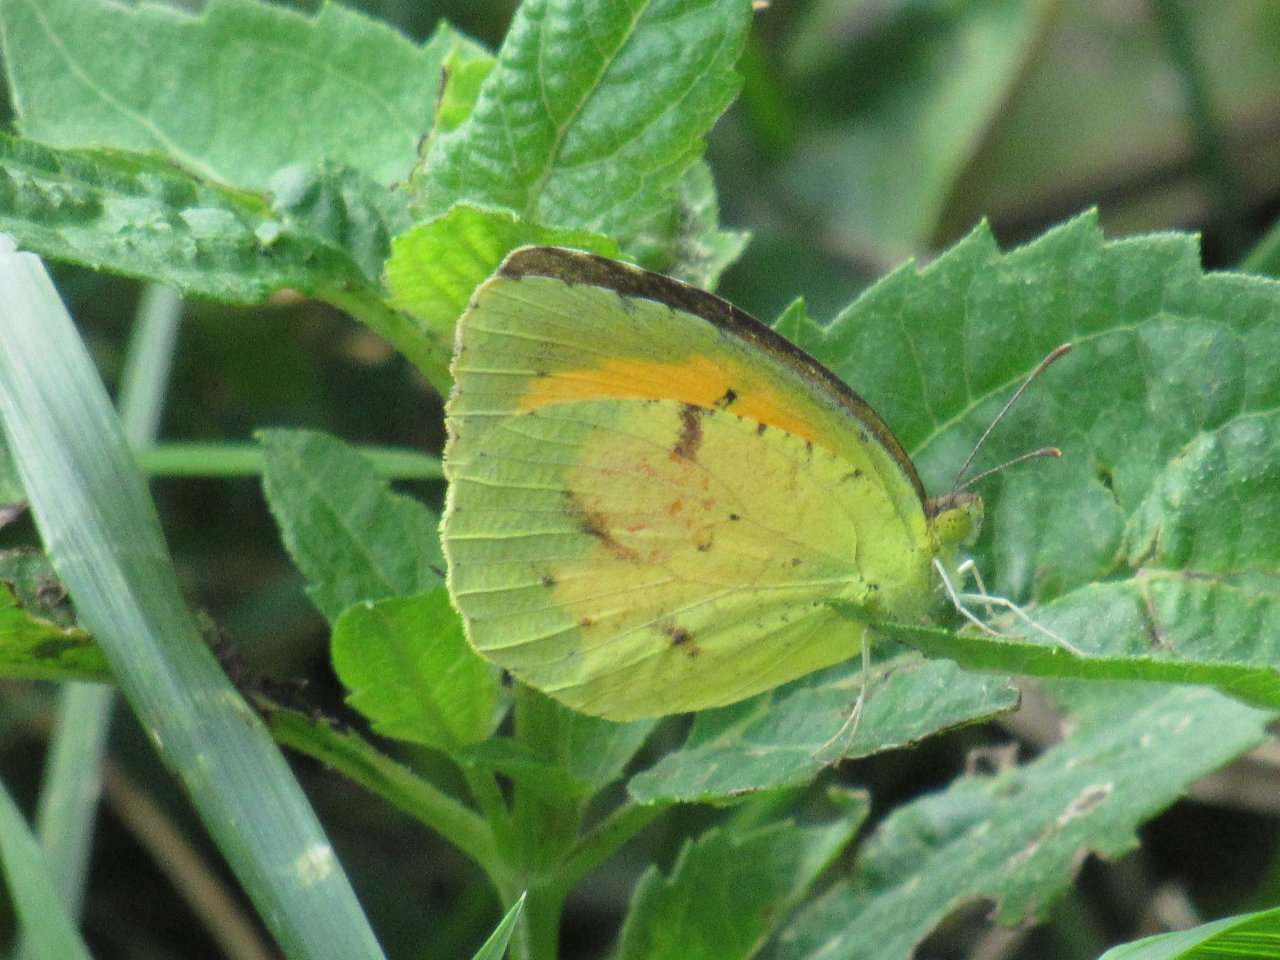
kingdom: Animalia
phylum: Arthropoda
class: Insecta
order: Lepidoptera
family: Pieridae
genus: Abaeis
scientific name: Abaeis nicippe
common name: Sleepy Orange
